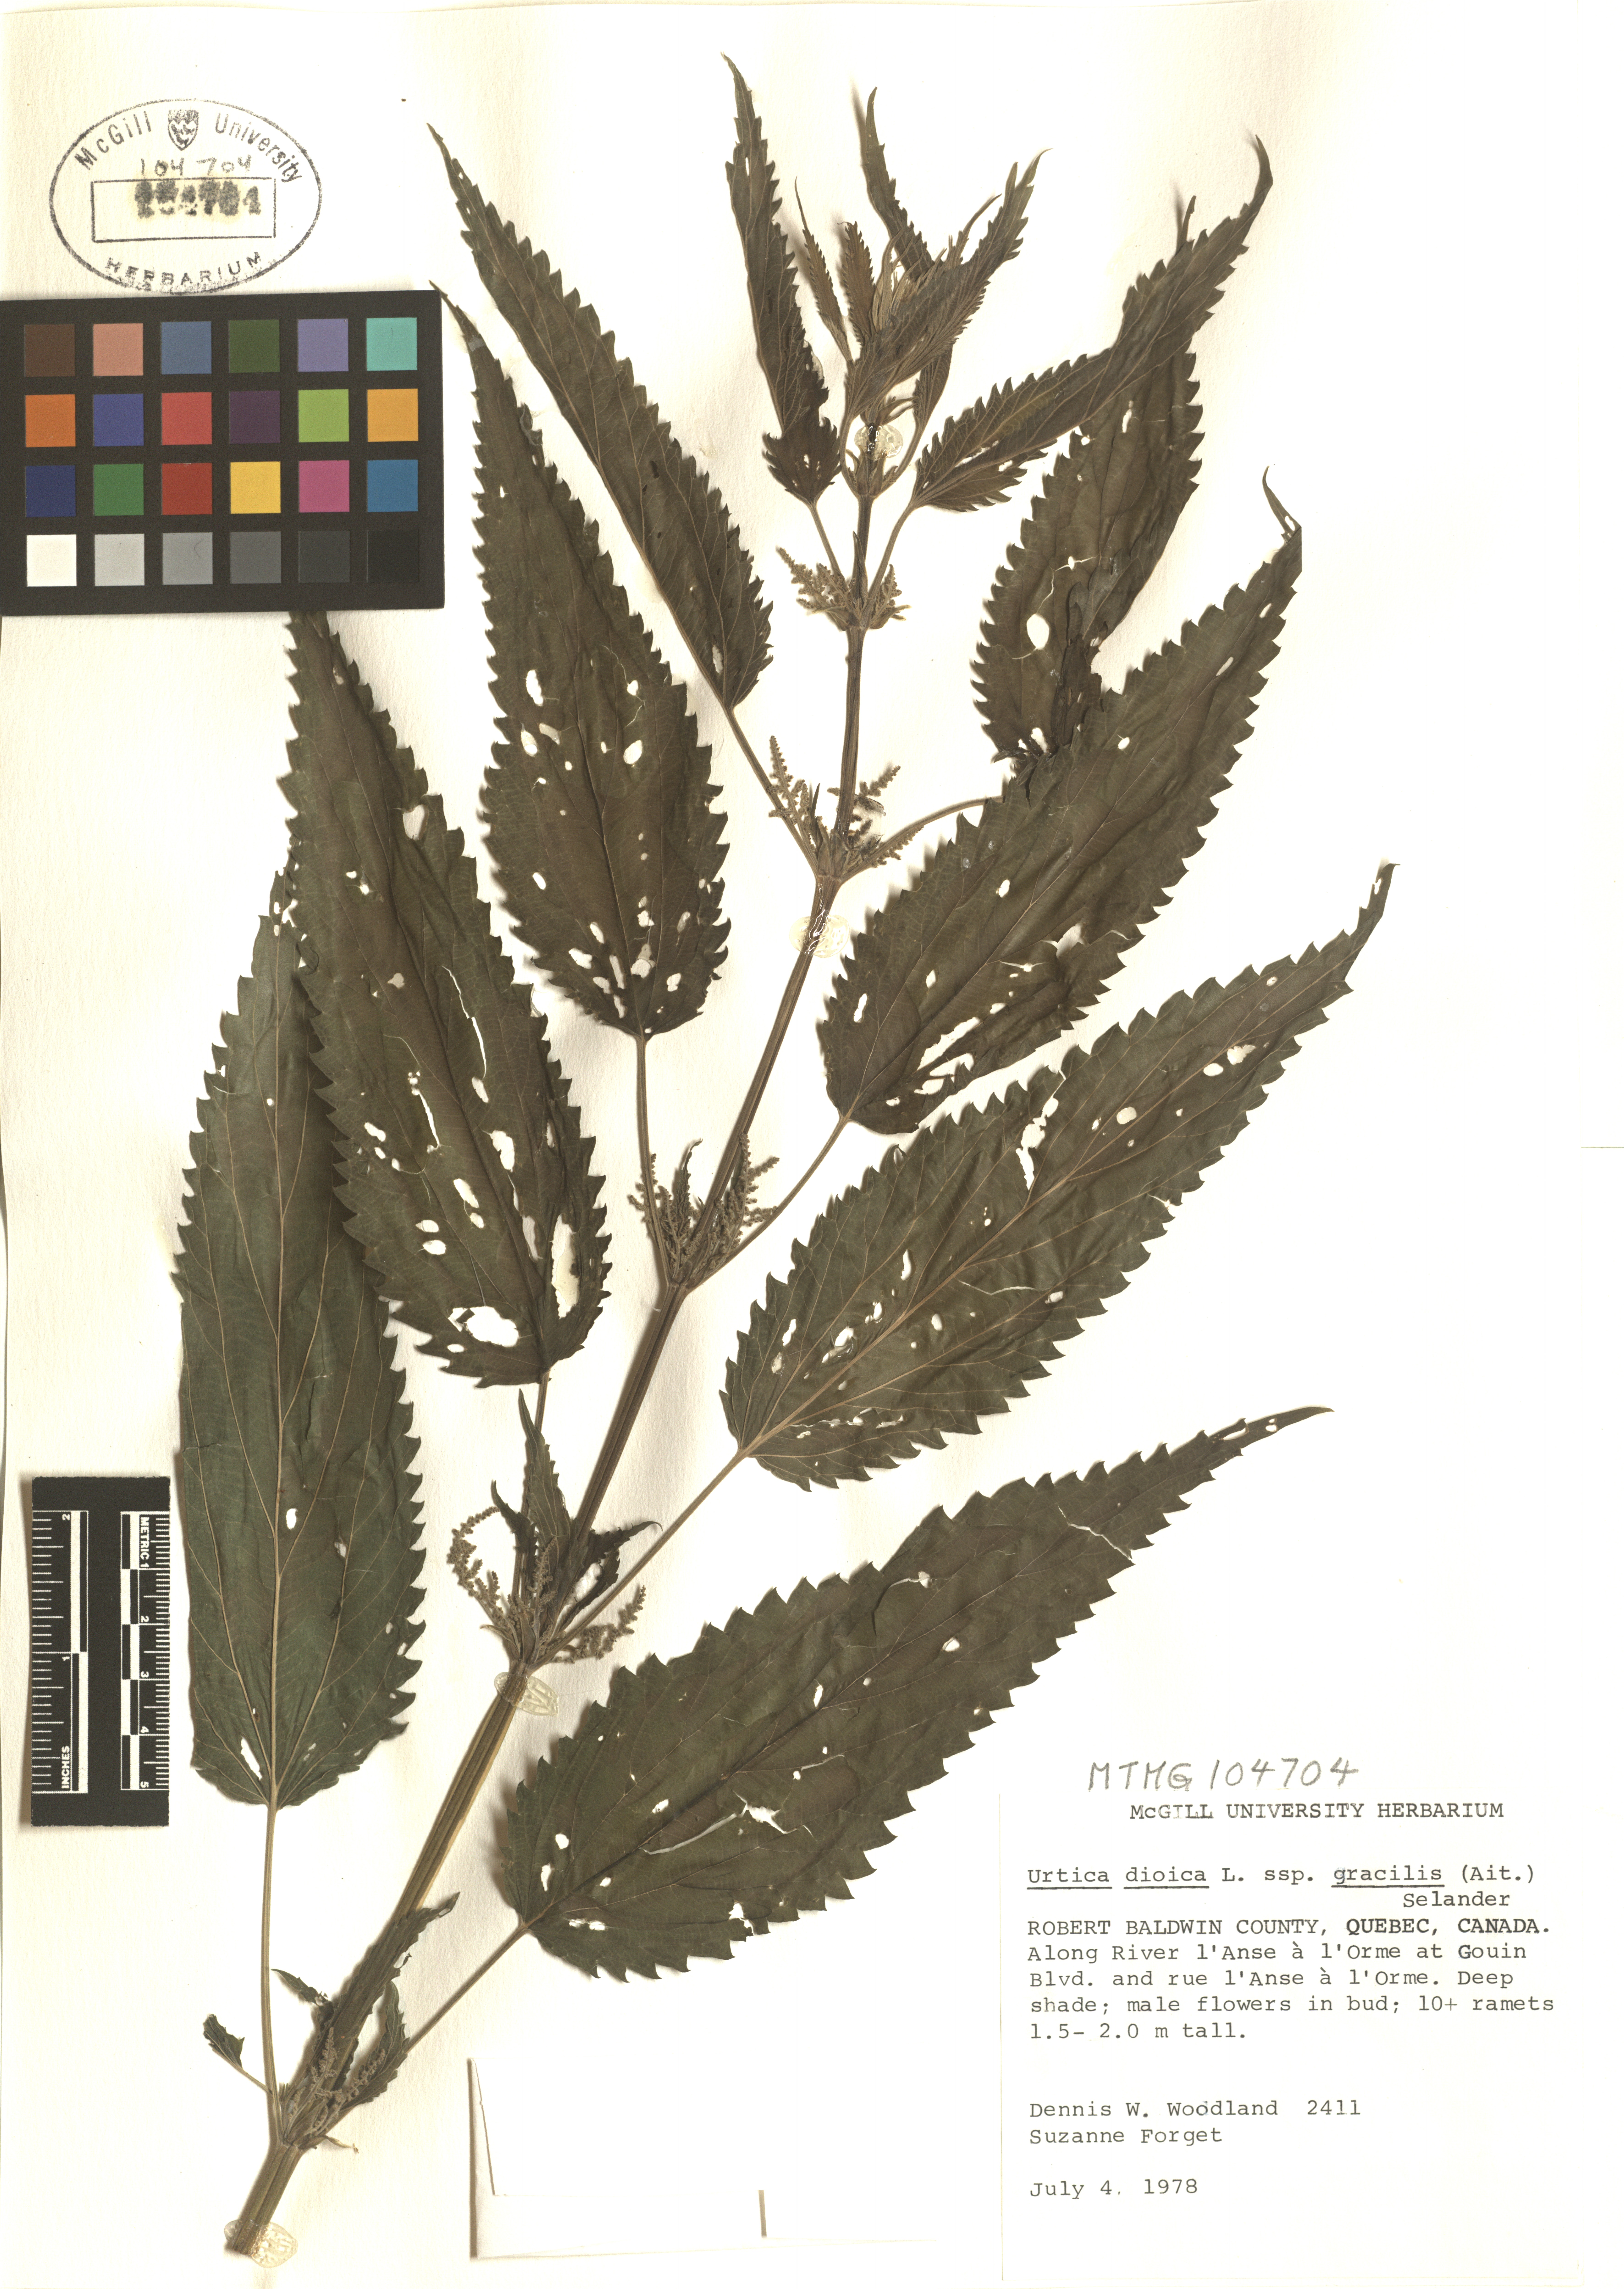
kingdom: Plantae
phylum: Tracheophyta
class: Magnoliopsida
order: Rosales
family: Urticaceae
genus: Urtica
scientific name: Urtica gracilis
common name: Slender stinging nettle
